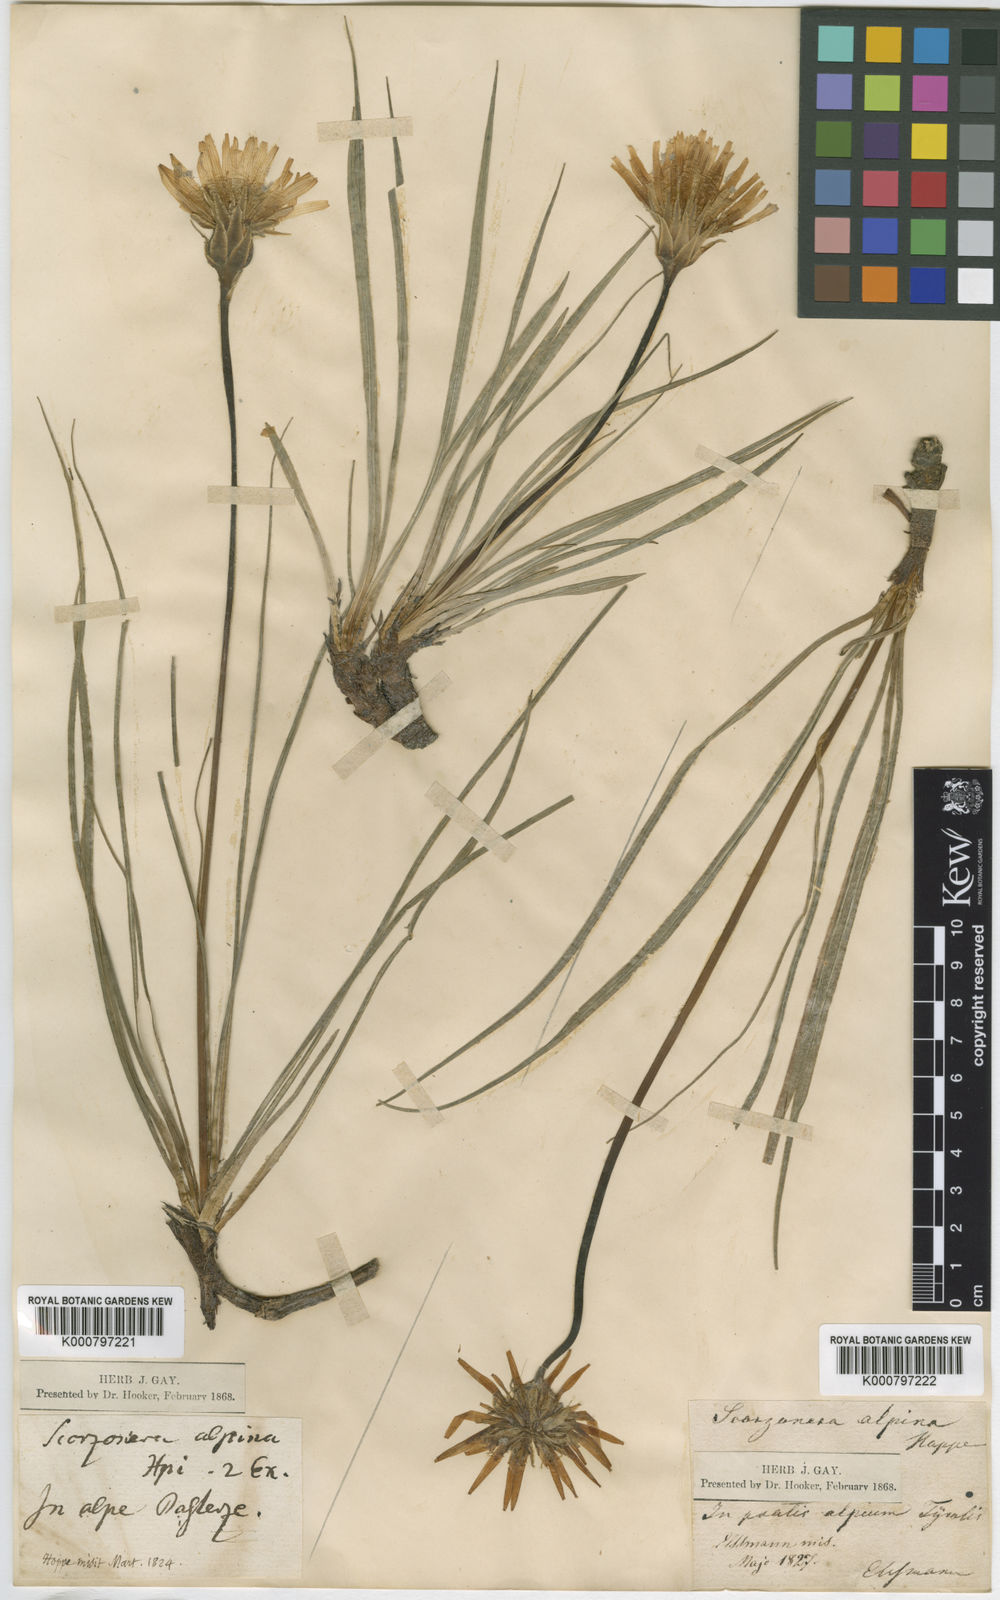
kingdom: Plantae
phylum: Tracheophyta
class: Magnoliopsida
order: Asterales
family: Asteraceae
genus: Scorzonera
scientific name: Scorzonera aristata
